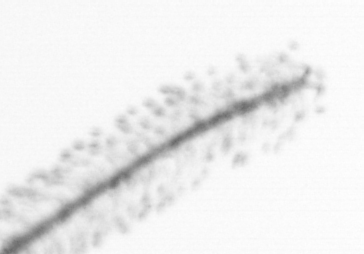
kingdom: Chromista
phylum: Ochrophyta
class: Bacillariophyceae
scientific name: Bacillariophyceae
